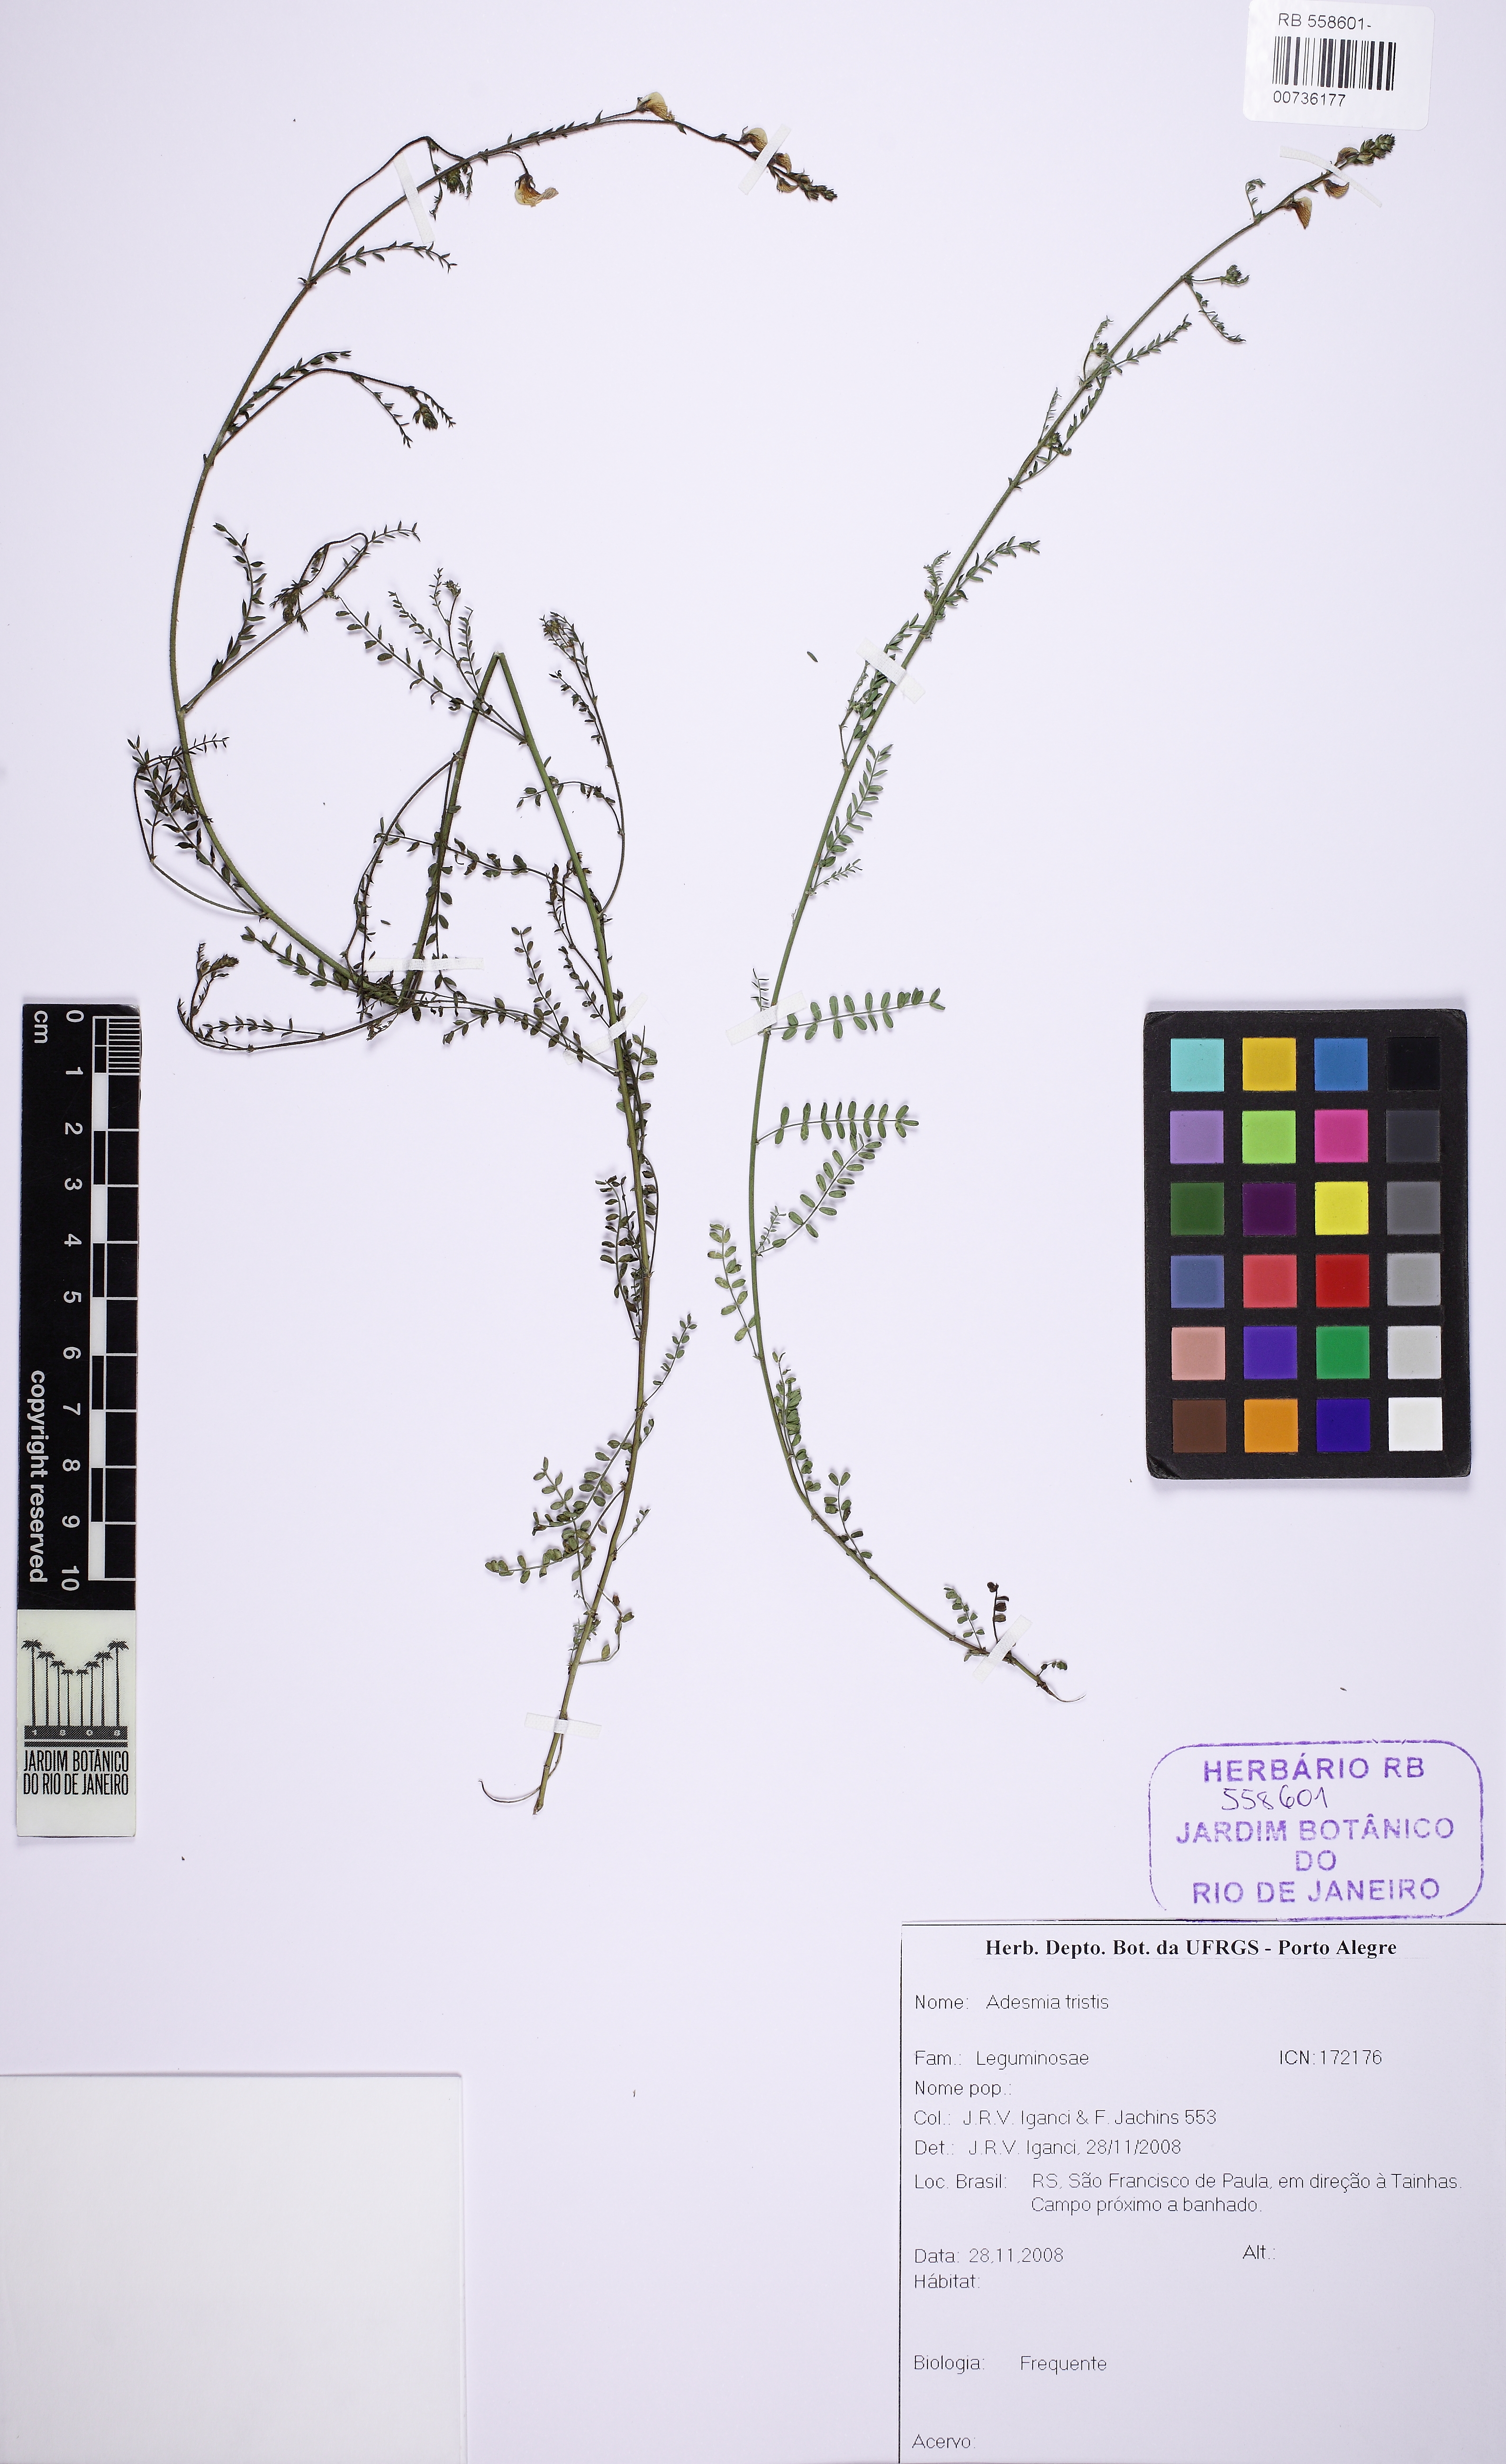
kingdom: Plantae
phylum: Tracheophyta
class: Magnoliopsida
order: Fabales
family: Fabaceae
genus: Adesmia
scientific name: Adesmia tristis
